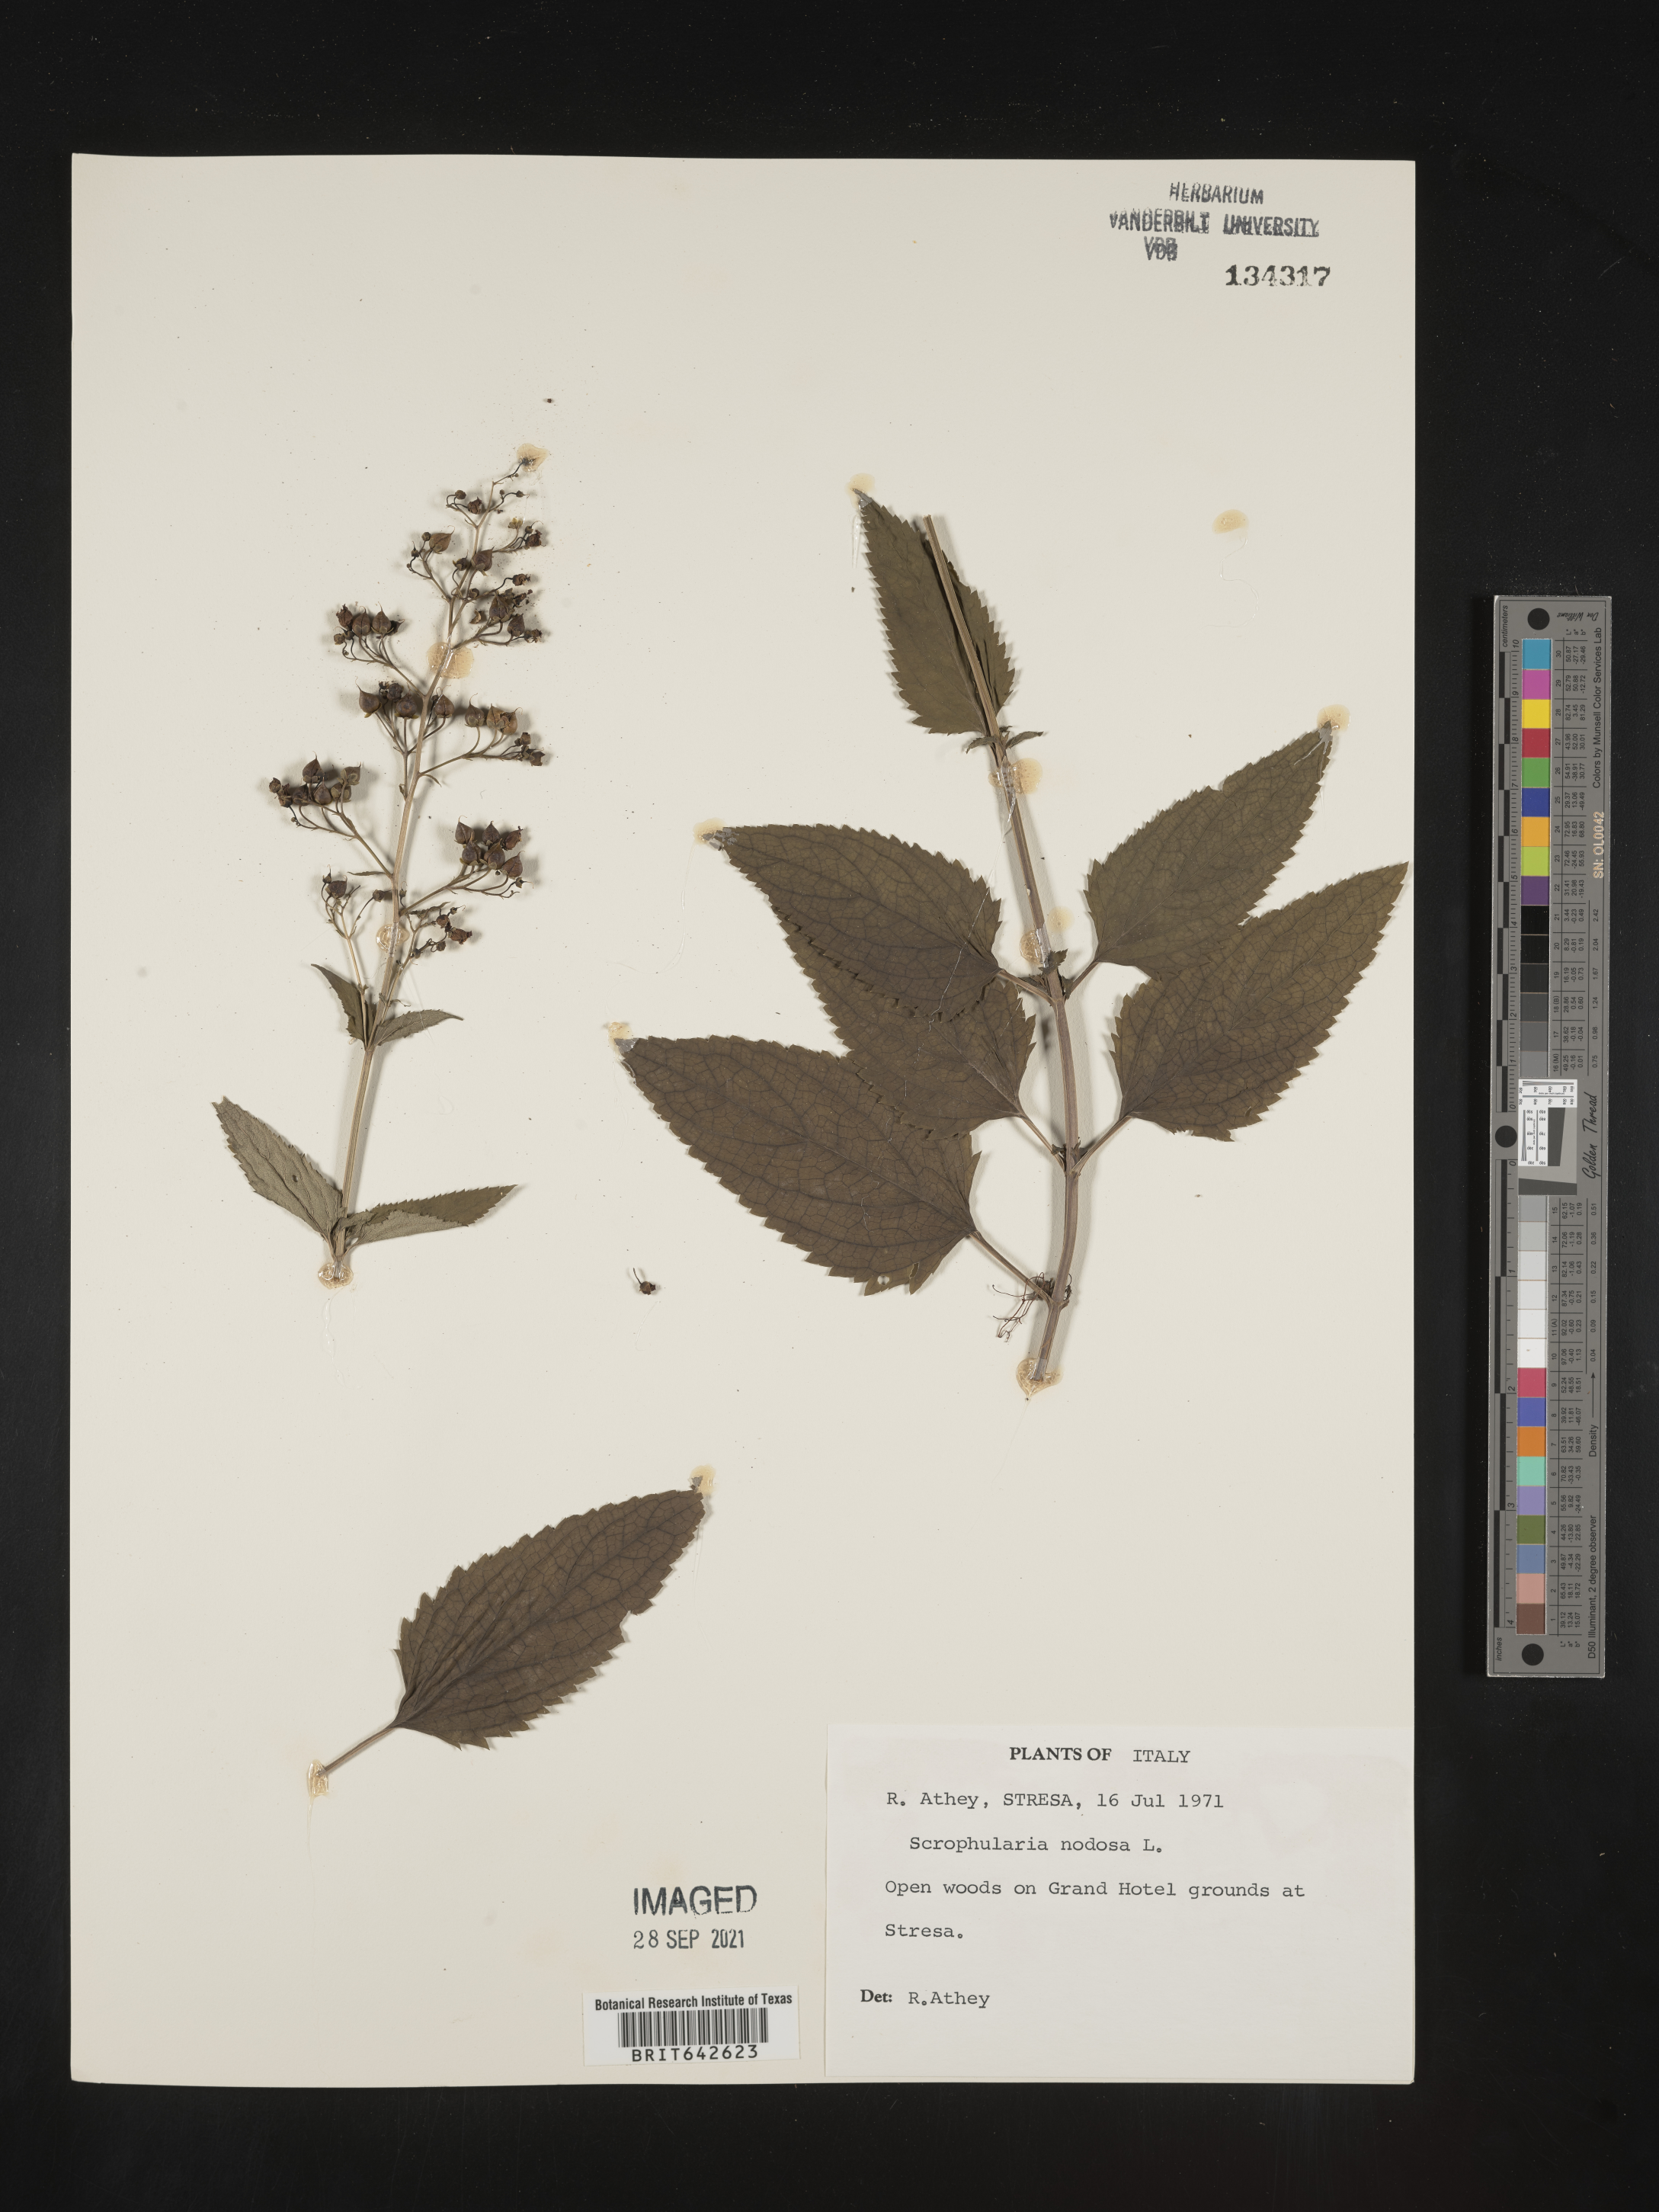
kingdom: Plantae
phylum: Tracheophyta
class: Magnoliopsida
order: Lamiales
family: Scrophulariaceae
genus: Scrophularia
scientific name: Scrophularia
